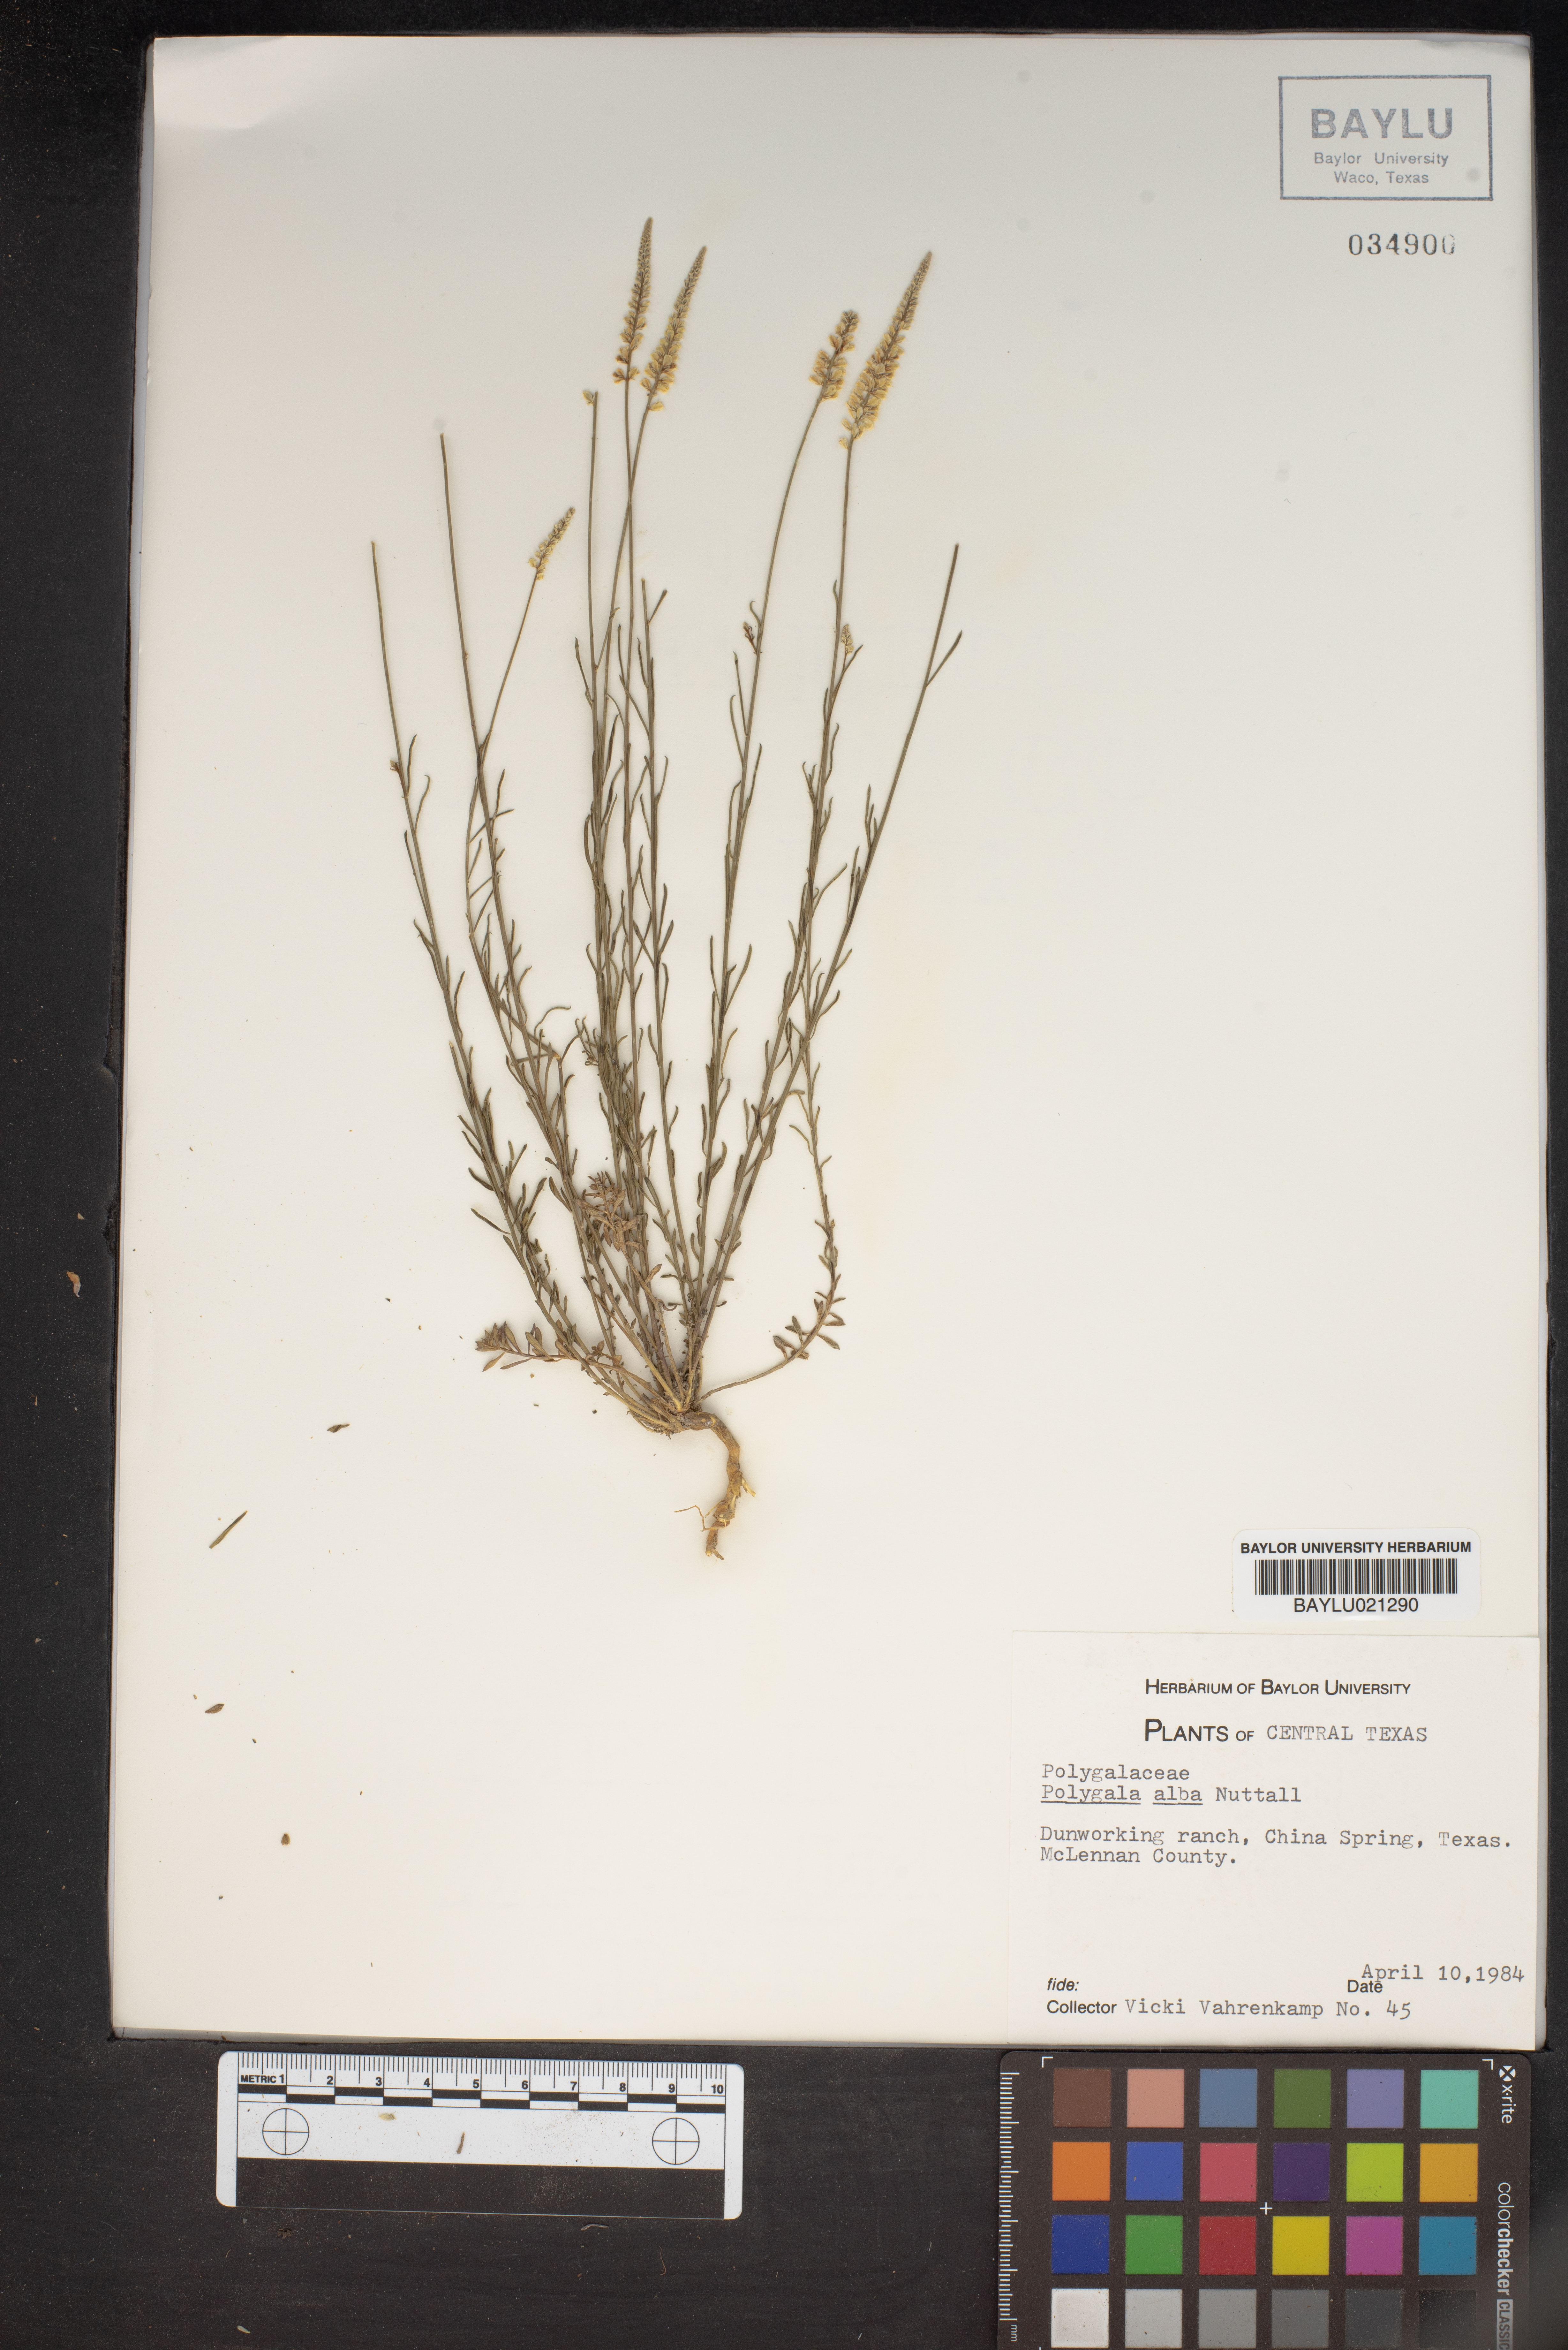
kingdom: Plantae
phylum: Tracheophyta
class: Magnoliopsida
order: Fabales
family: Polygalaceae
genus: Polygala
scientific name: Polygala alba
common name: White milkwort
